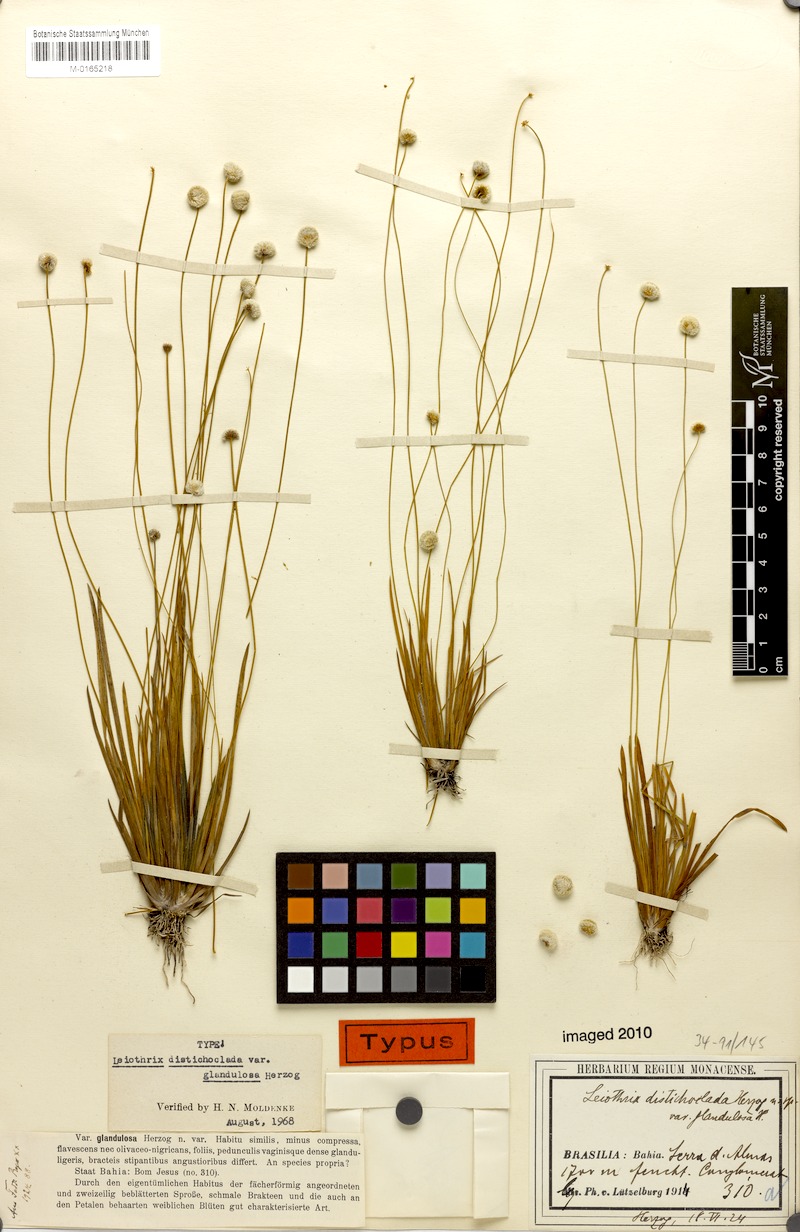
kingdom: Plantae
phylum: Tracheophyta
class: Liliopsida
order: Poales
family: Eriocaulaceae
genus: Leiothrix
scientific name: Leiothrix distichoclada
